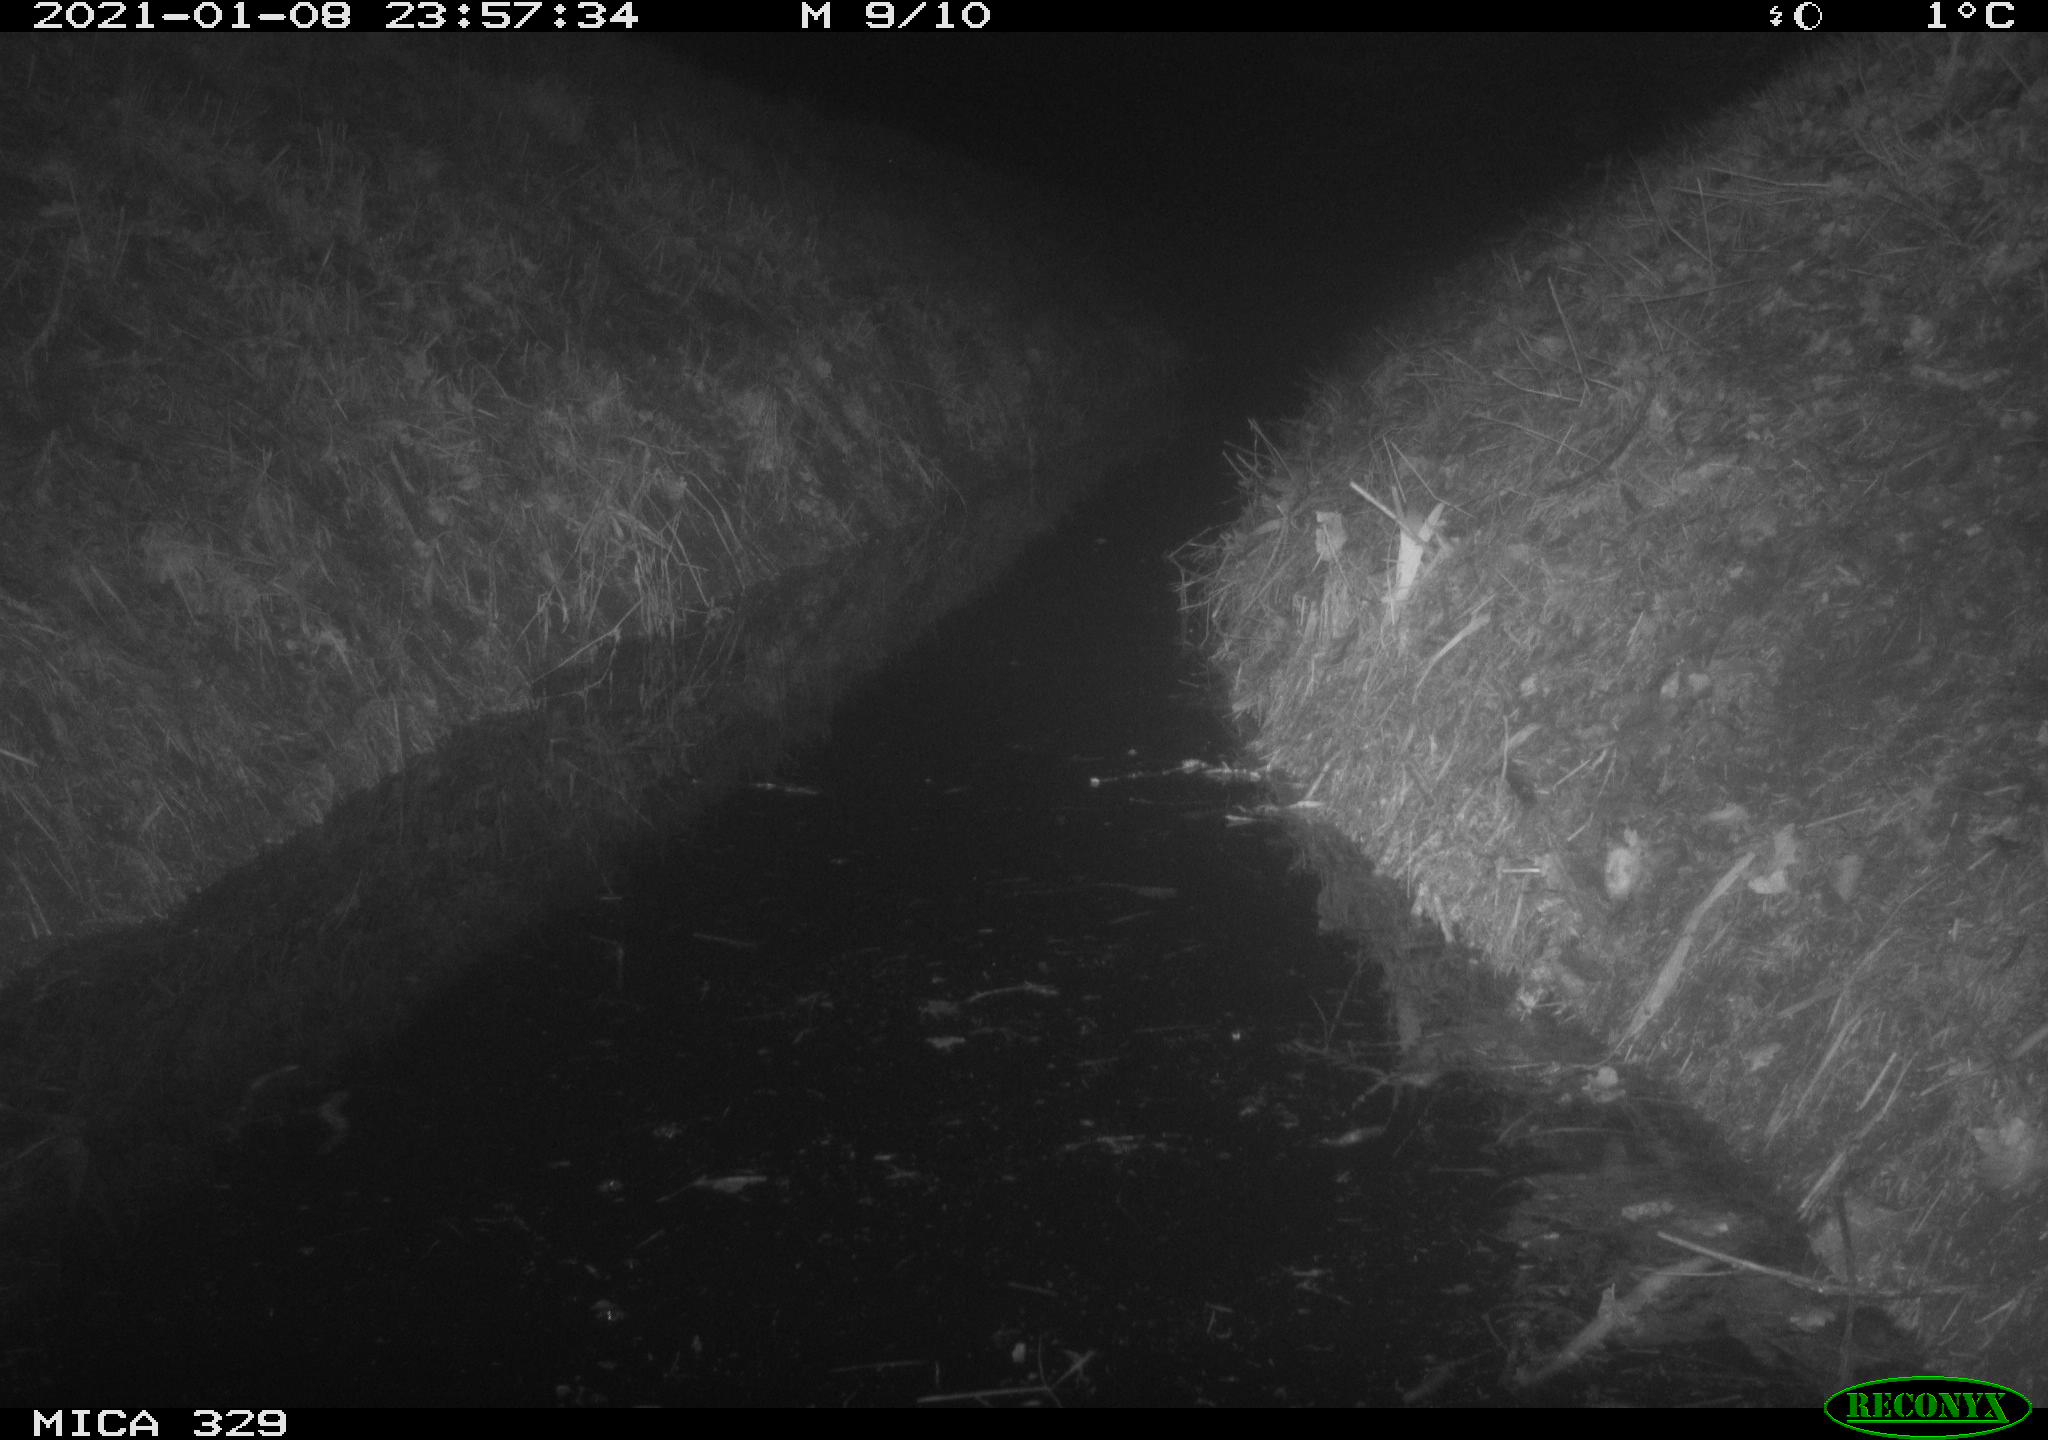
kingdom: Animalia
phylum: Chordata
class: Mammalia
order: Rodentia
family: Muridae
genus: Rattus
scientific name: Rattus norvegicus
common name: Brown rat
